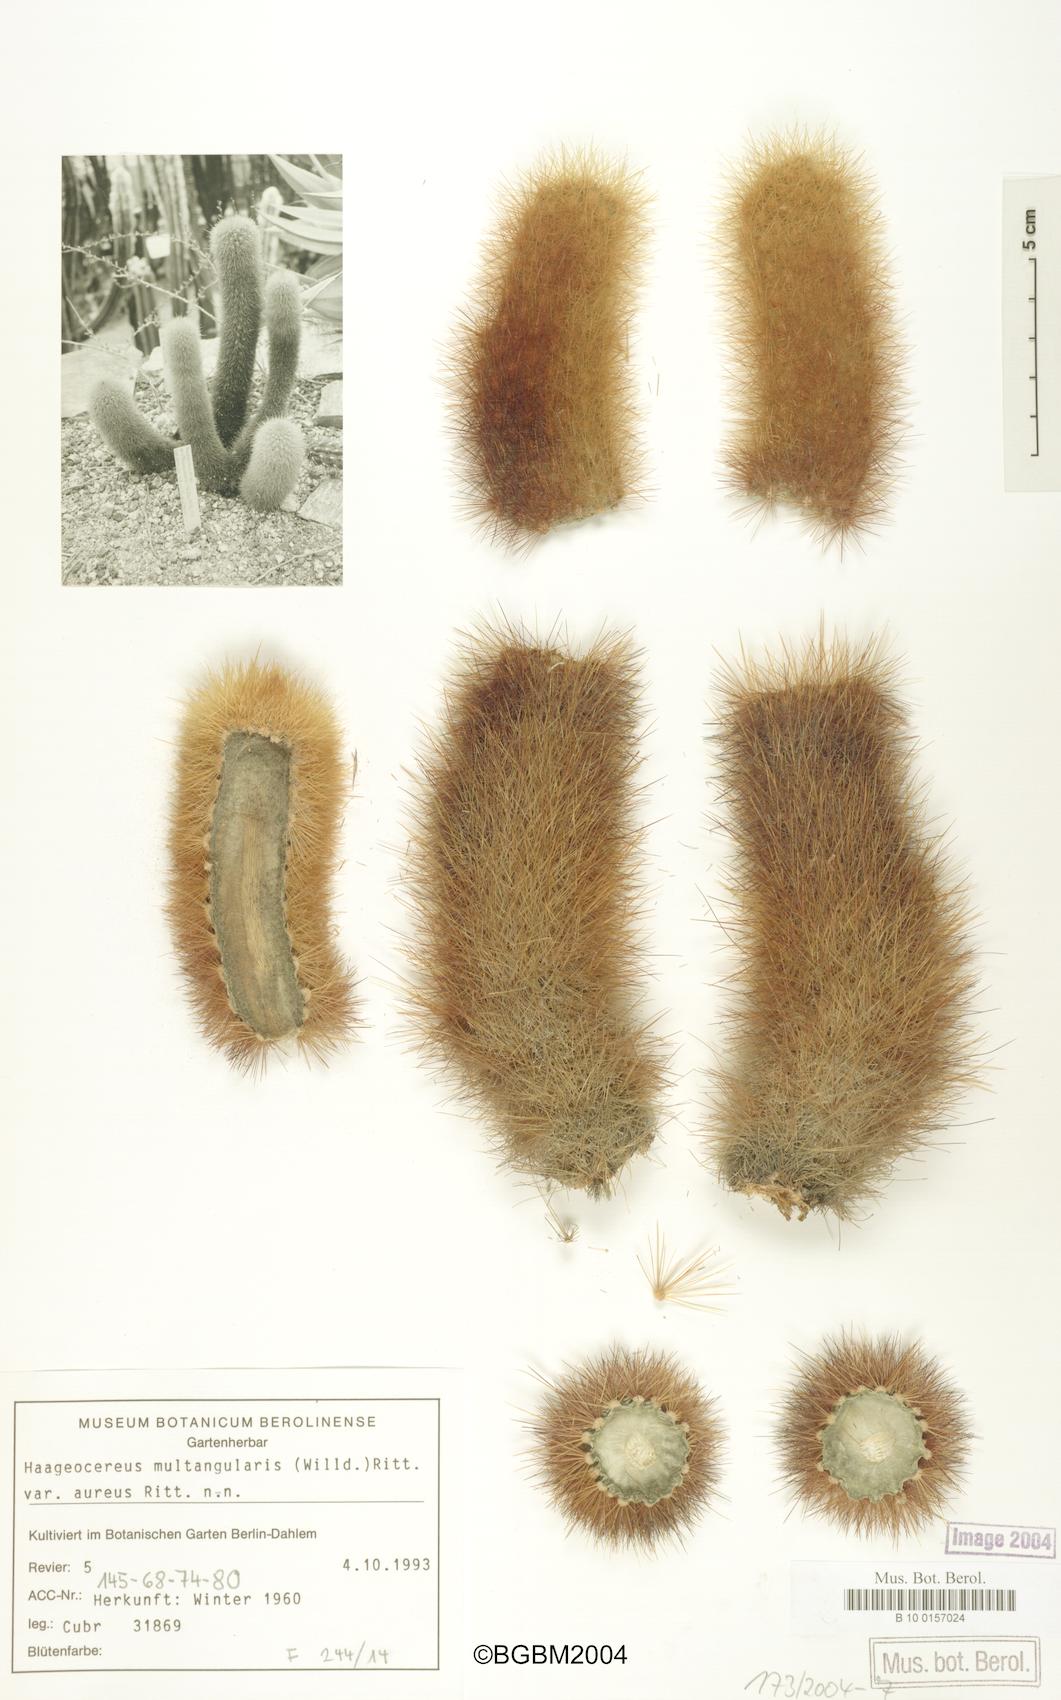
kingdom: Plantae
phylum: Tracheophyta
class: Magnoliopsida
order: Caryophyllales
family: Cactaceae
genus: Haageocereus
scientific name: Haageocereus pseudomelanostele
